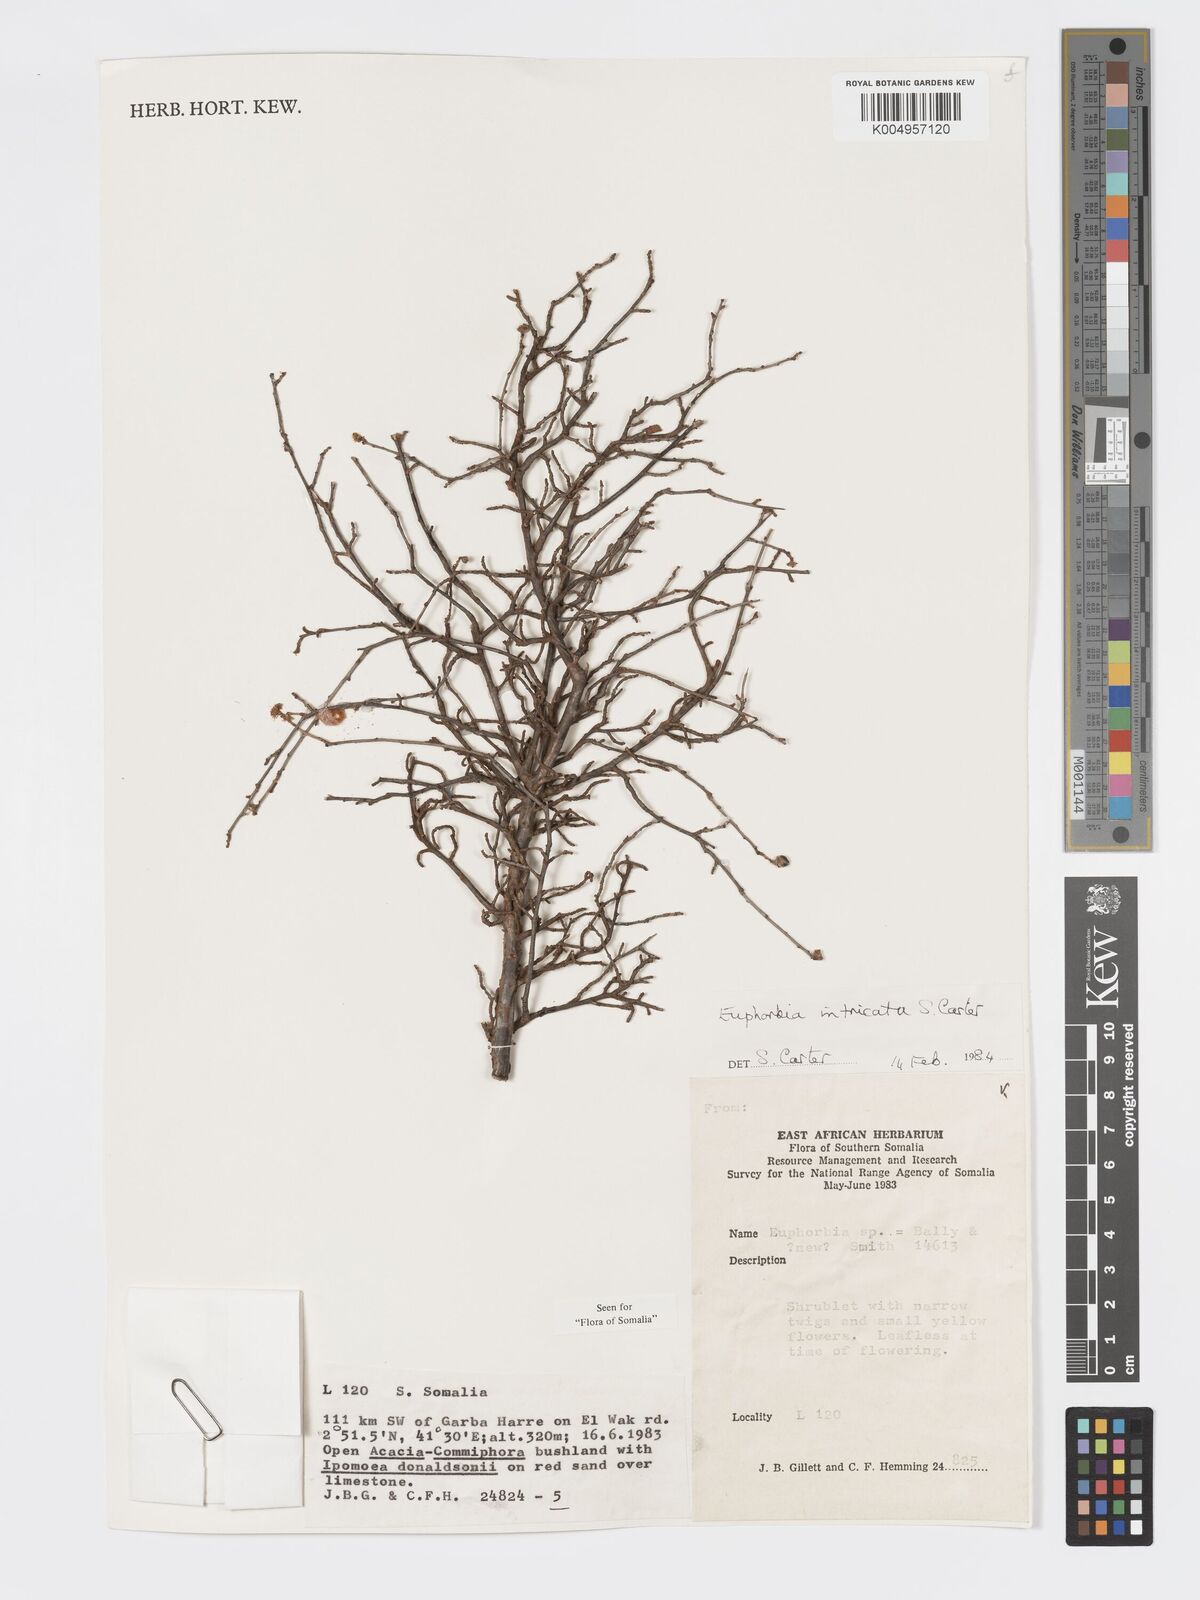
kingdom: Plantae
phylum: Tracheophyta
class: Magnoliopsida
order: Malpighiales
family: Euphorbiaceae
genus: Euphorbia
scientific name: Euphorbia intricata
